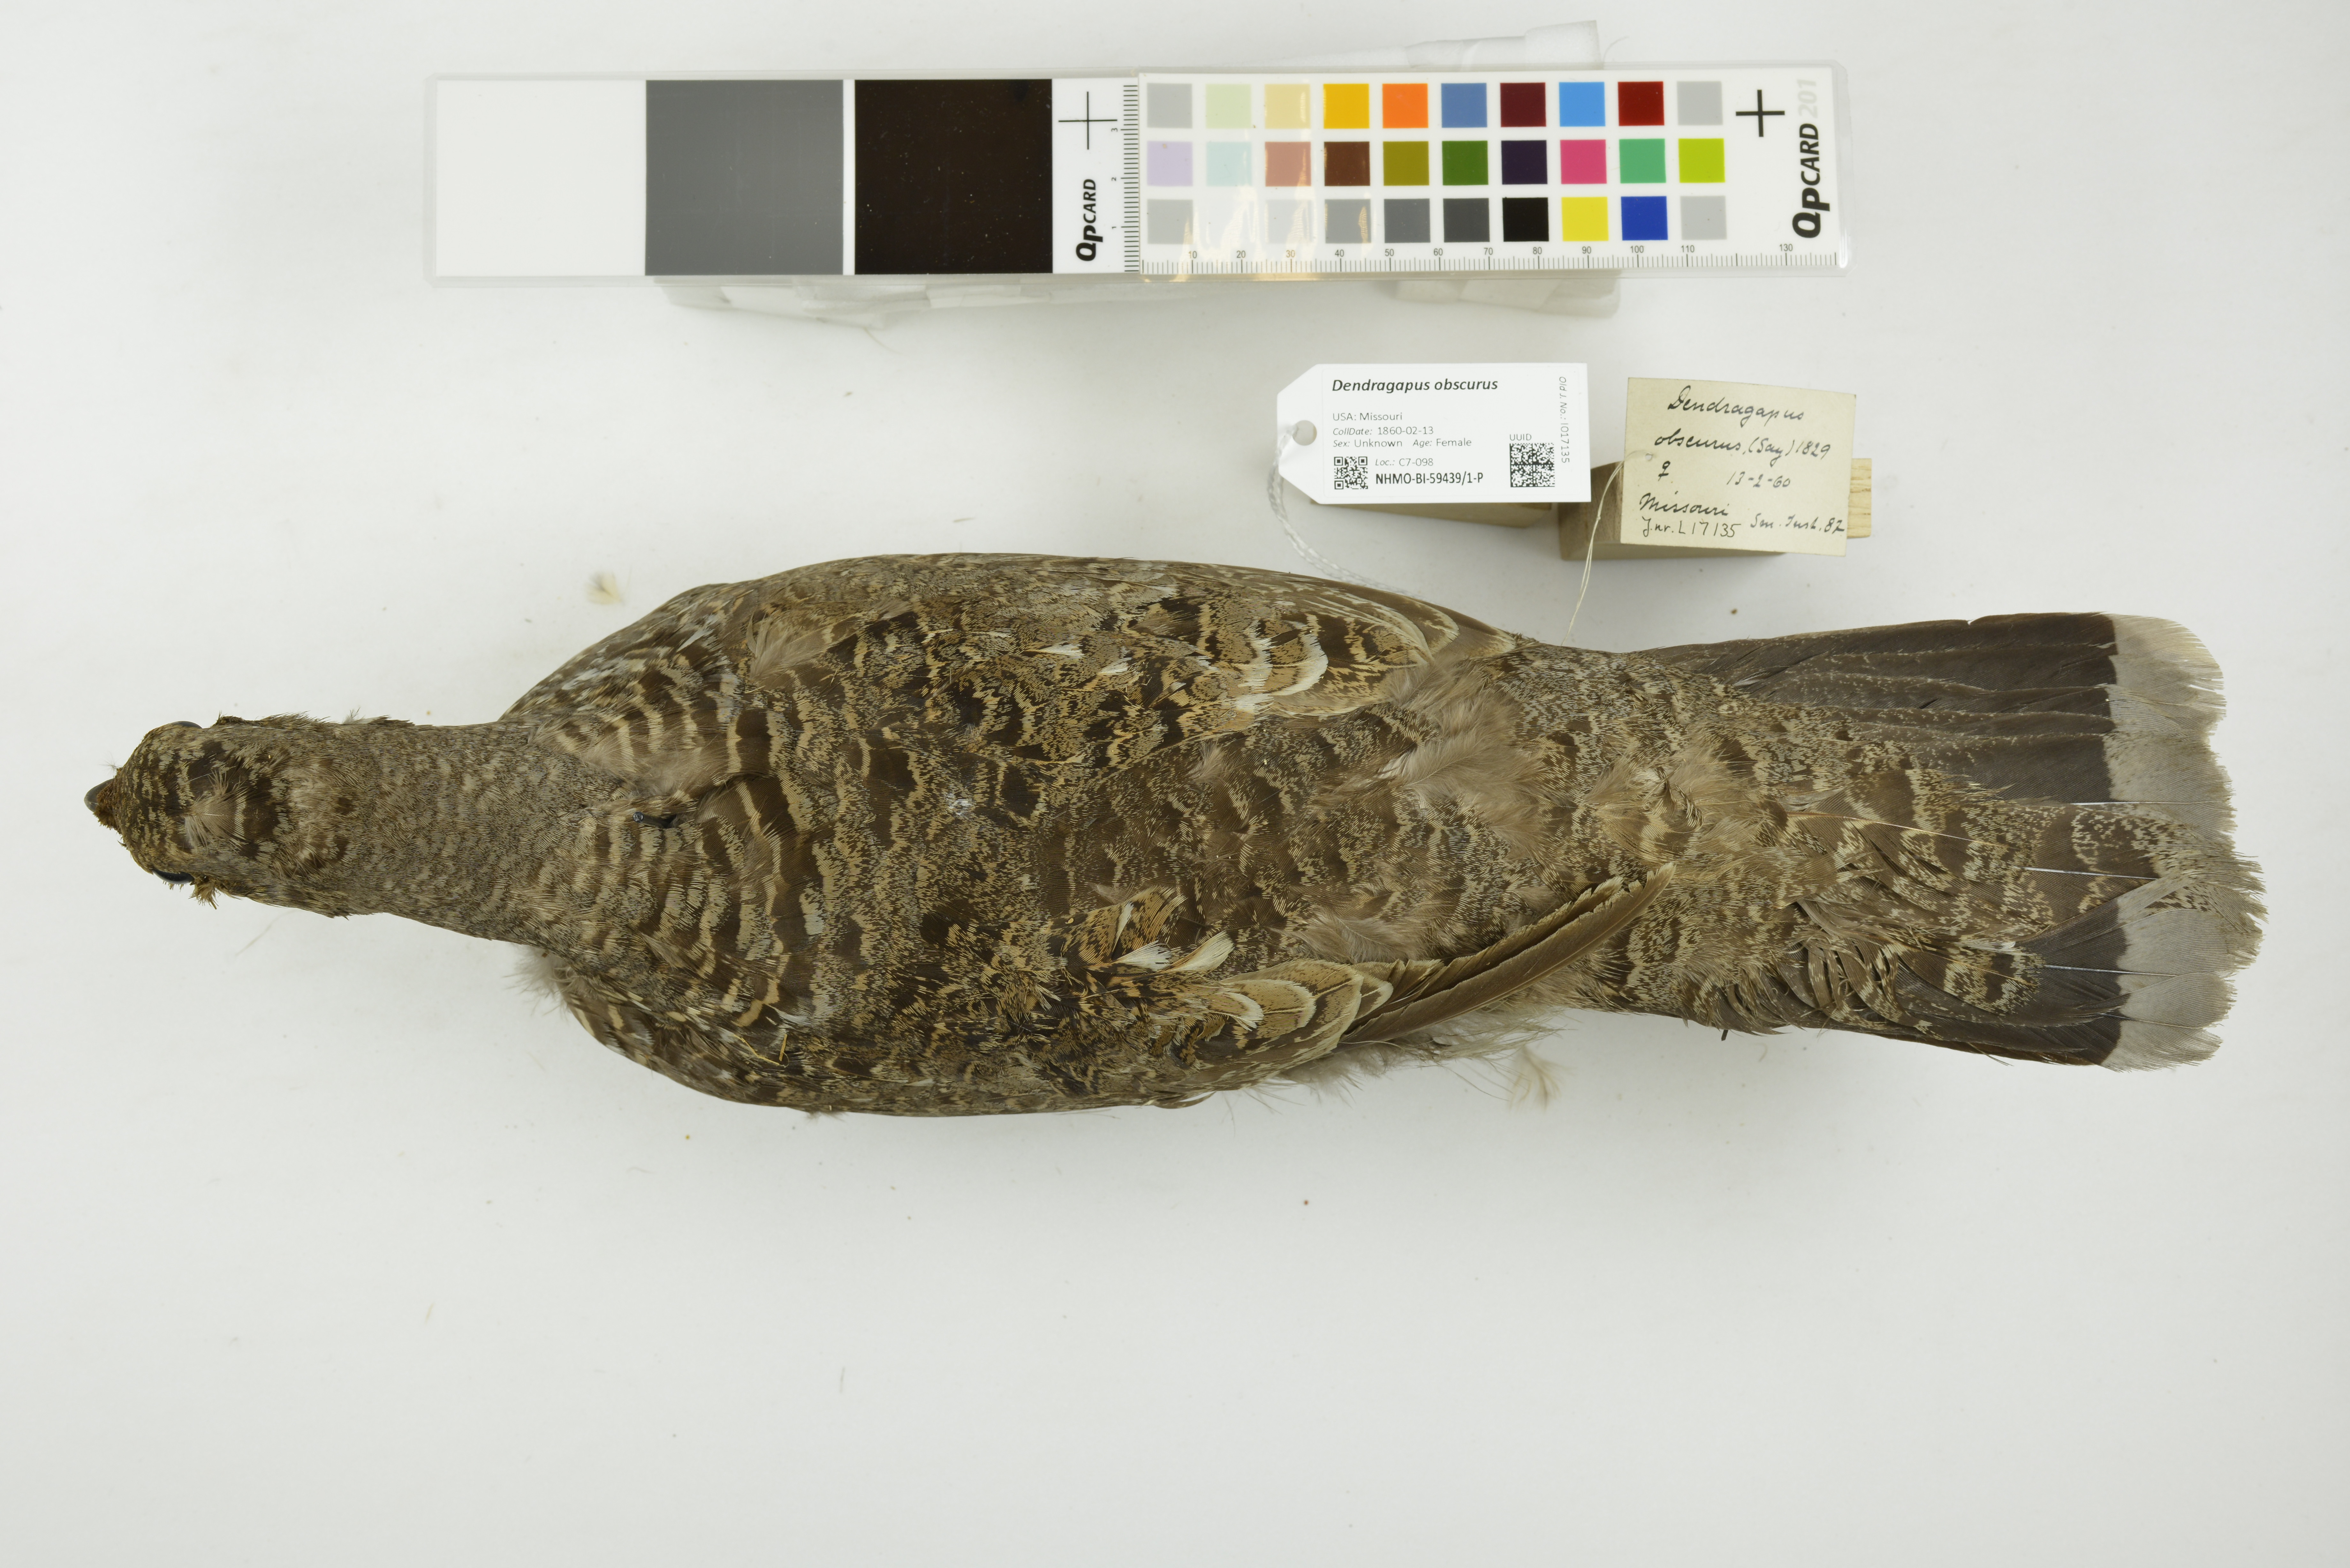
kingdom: Animalia
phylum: Chordata
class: Aves
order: Galliformes
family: Phasianidae
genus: Dendragapus
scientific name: Dendragapus obscurus
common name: Dusky grouse
